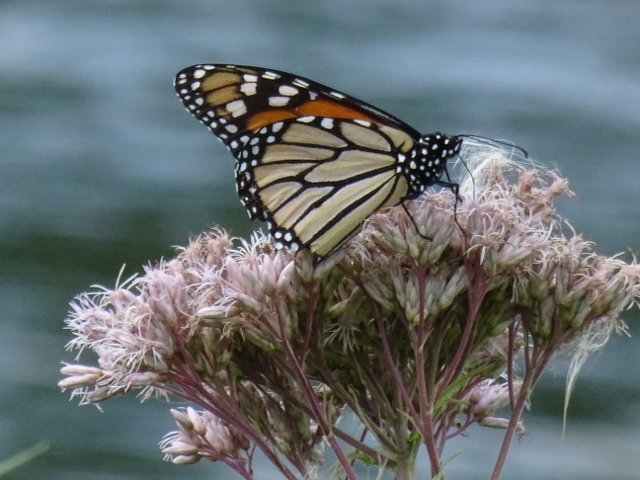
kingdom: Animalia
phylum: Arthropoda
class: Insecta
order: Lepidoptera
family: Nymphalidae
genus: Danaus
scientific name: Danaus plexippus
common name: Monarch
